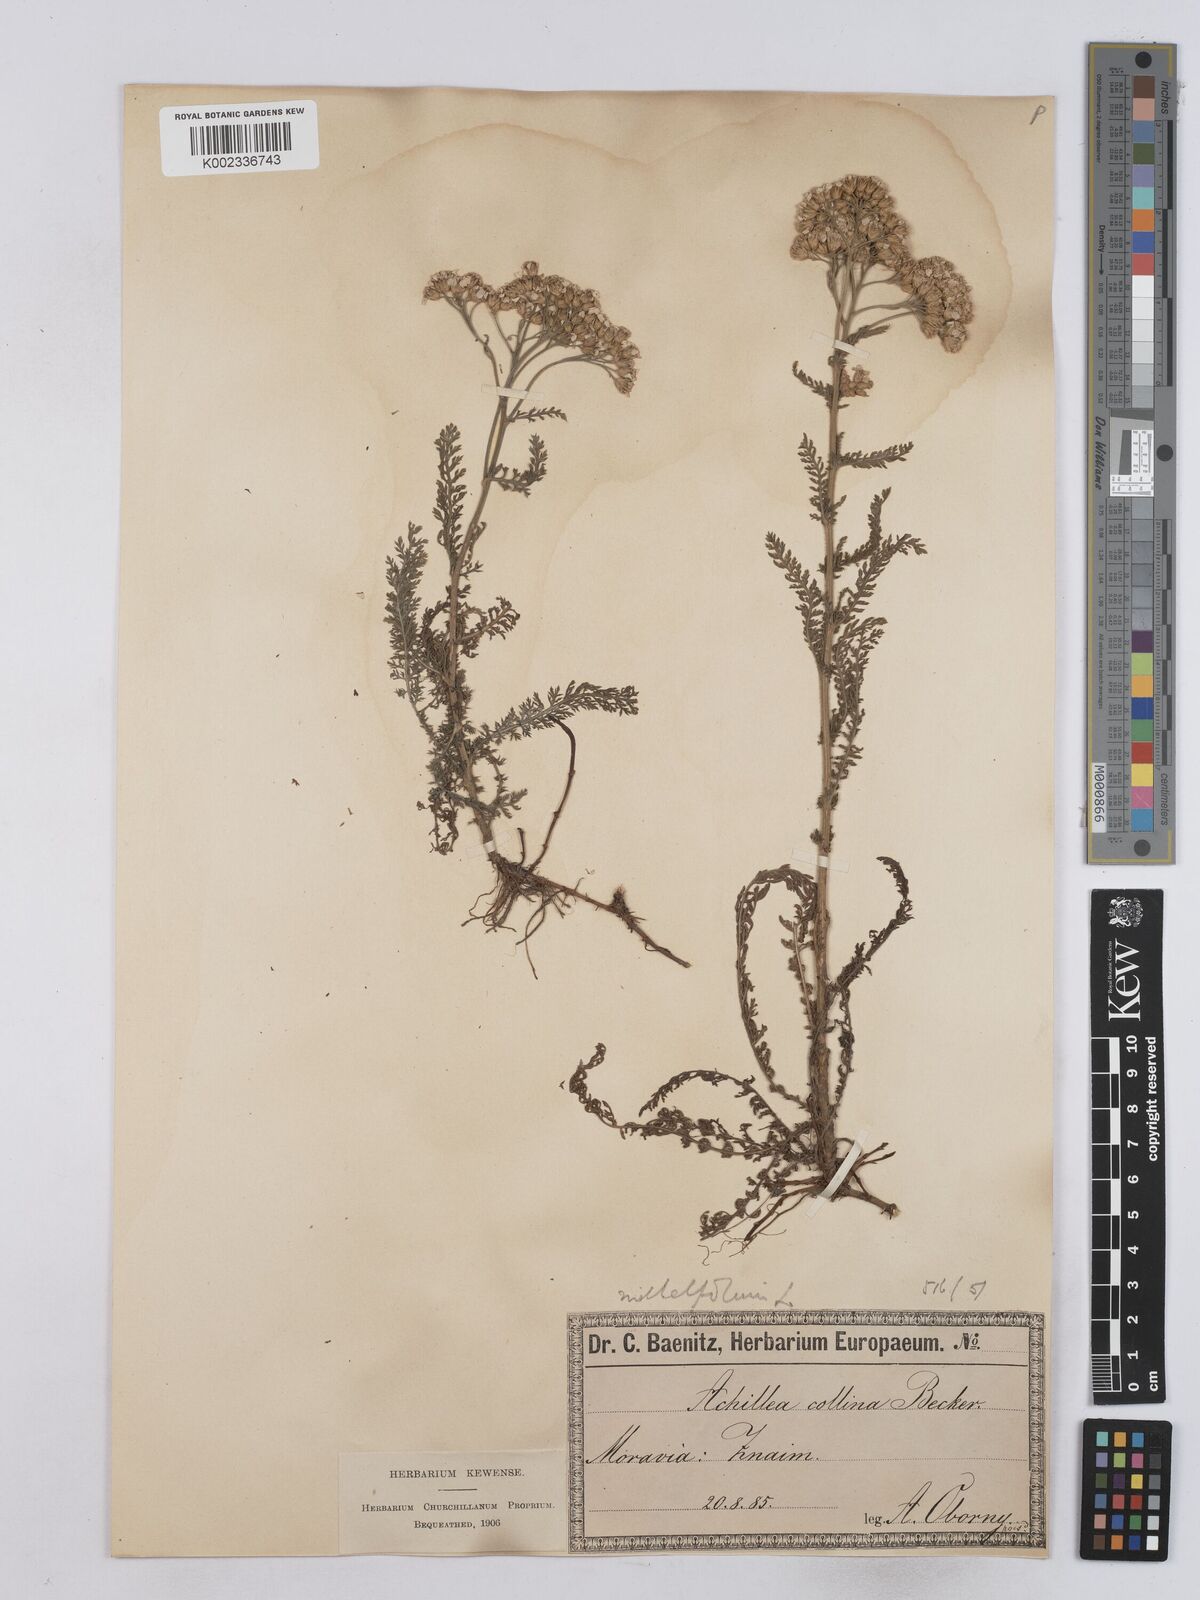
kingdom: Plantae
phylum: Tracheophyta
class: Magnoliopsida
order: Asterales
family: Asteraceae
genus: Achillea
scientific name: Achillea collina
